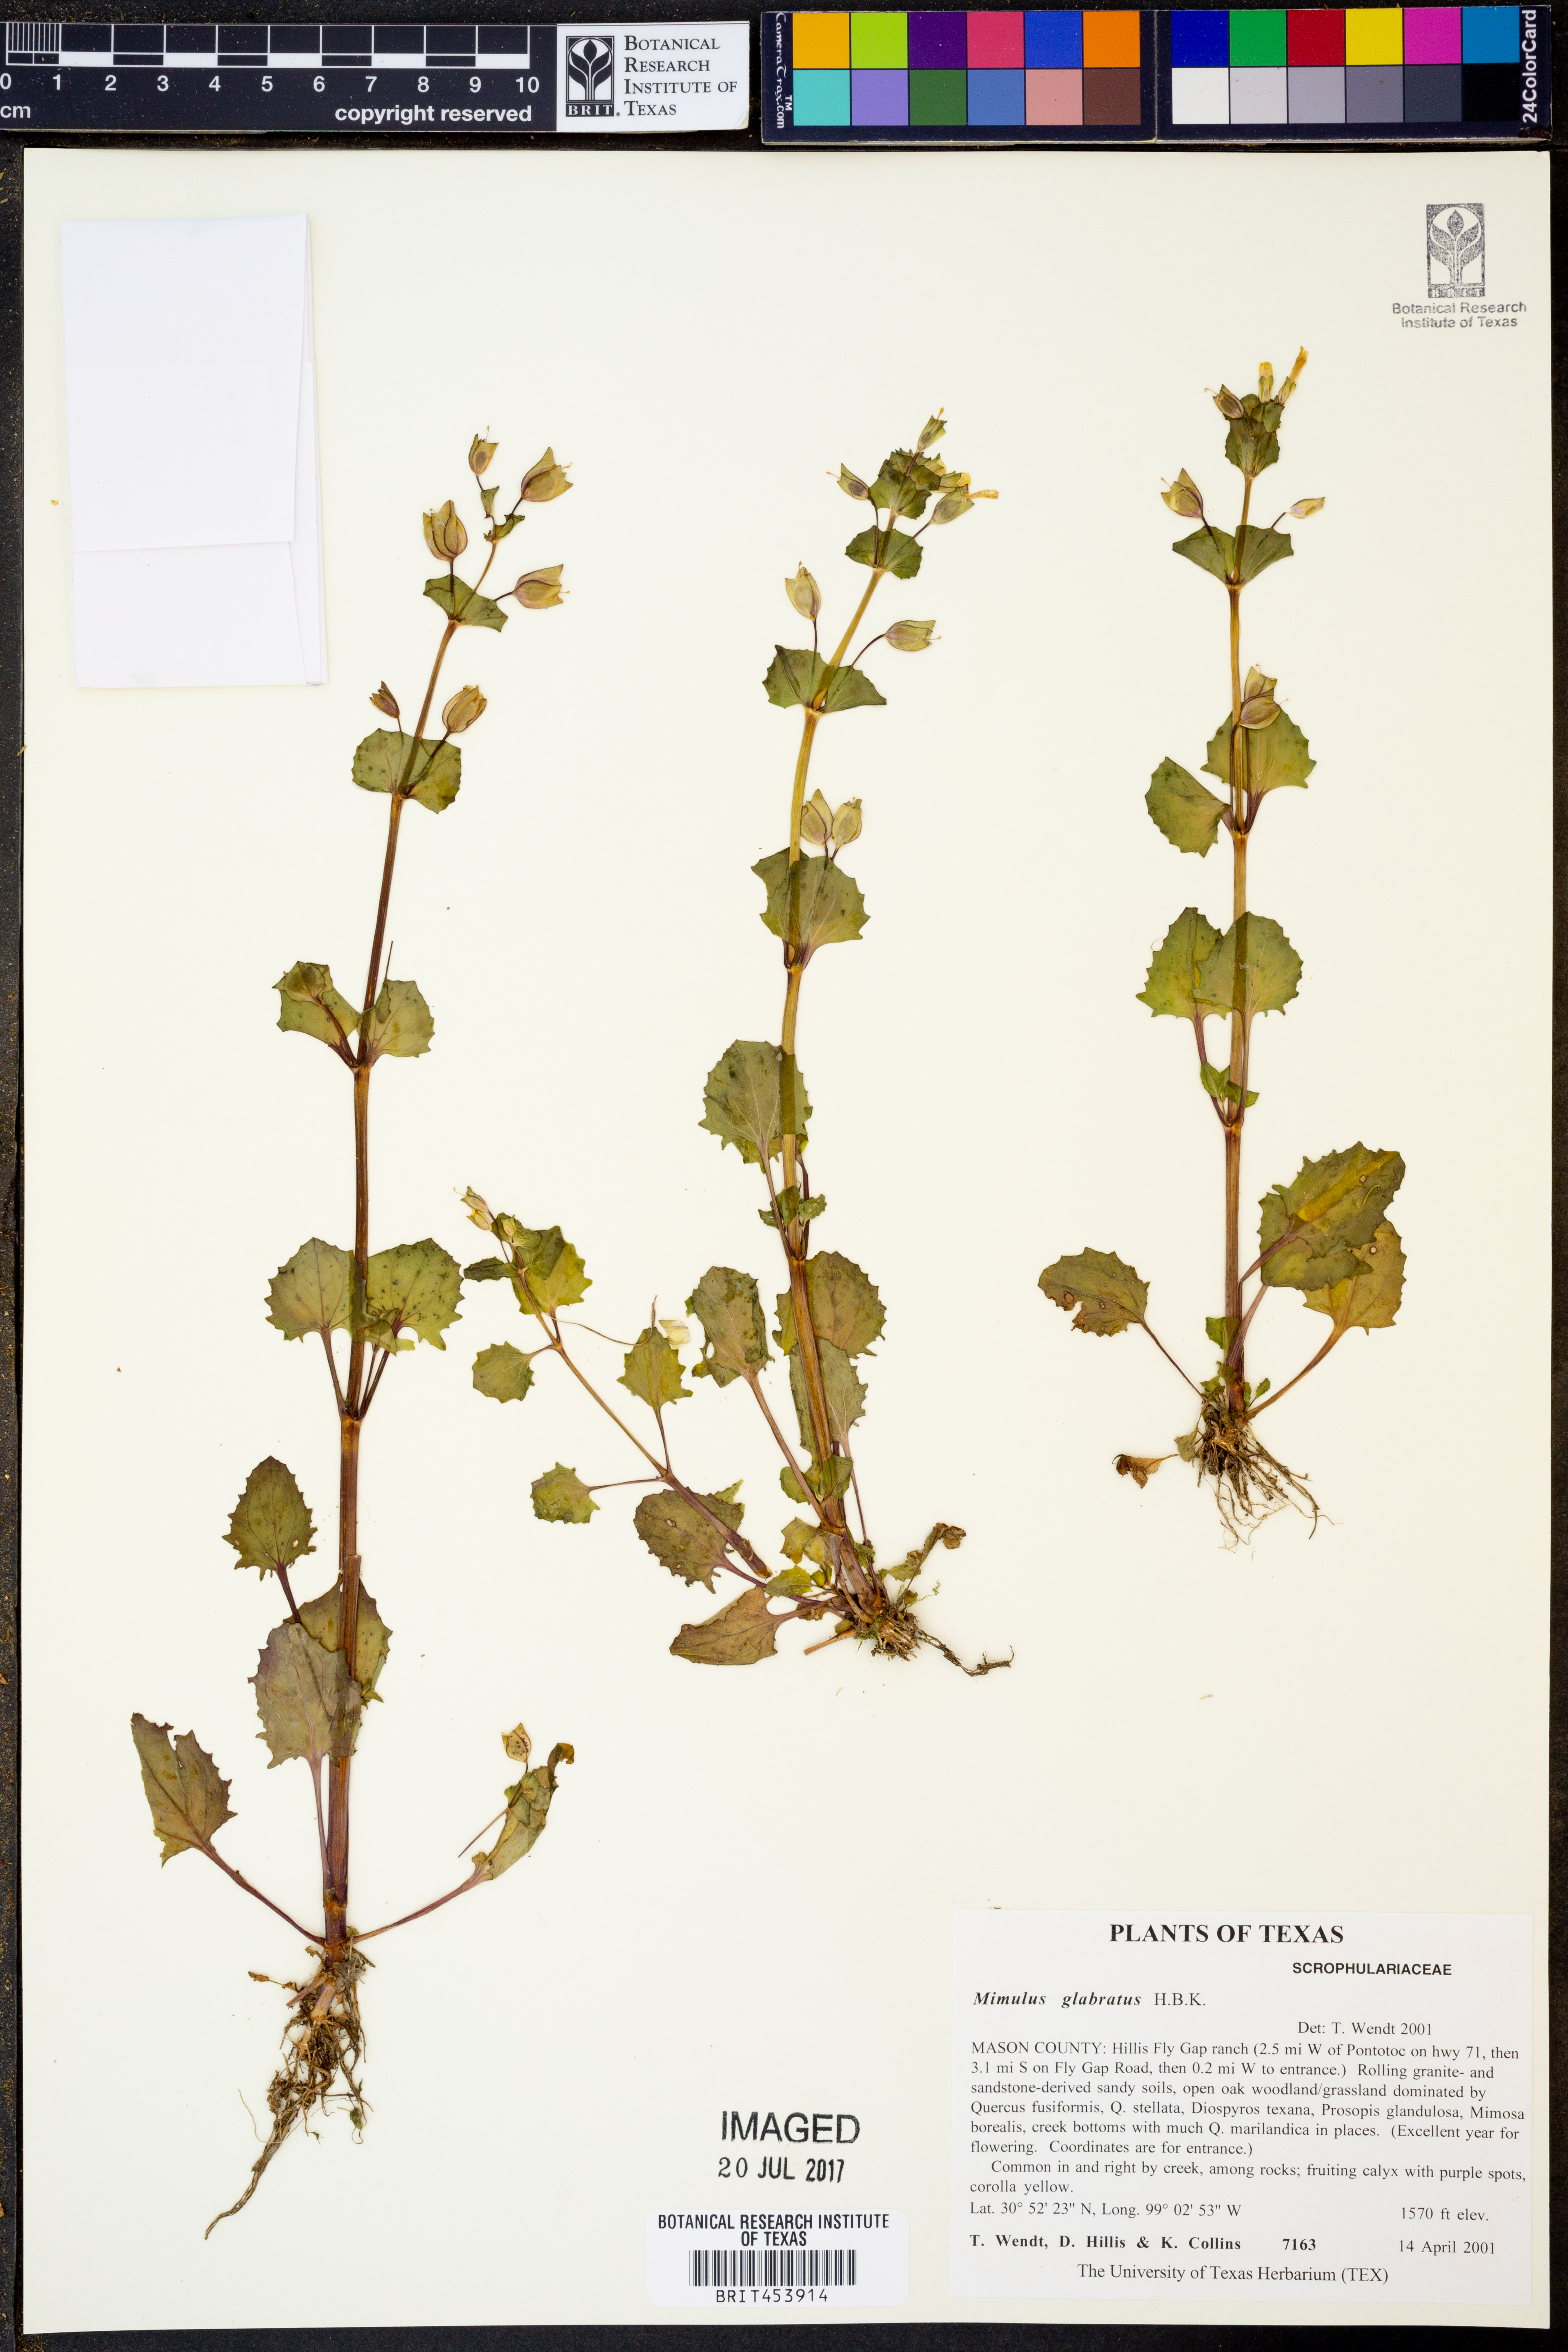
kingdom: Plantae
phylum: Tracheophyta
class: Magnoliopsida
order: Lamiales
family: Phrymaceae
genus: Erythranthe
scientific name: Erythranthe glabrata
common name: Round-leaved monkeyflower
